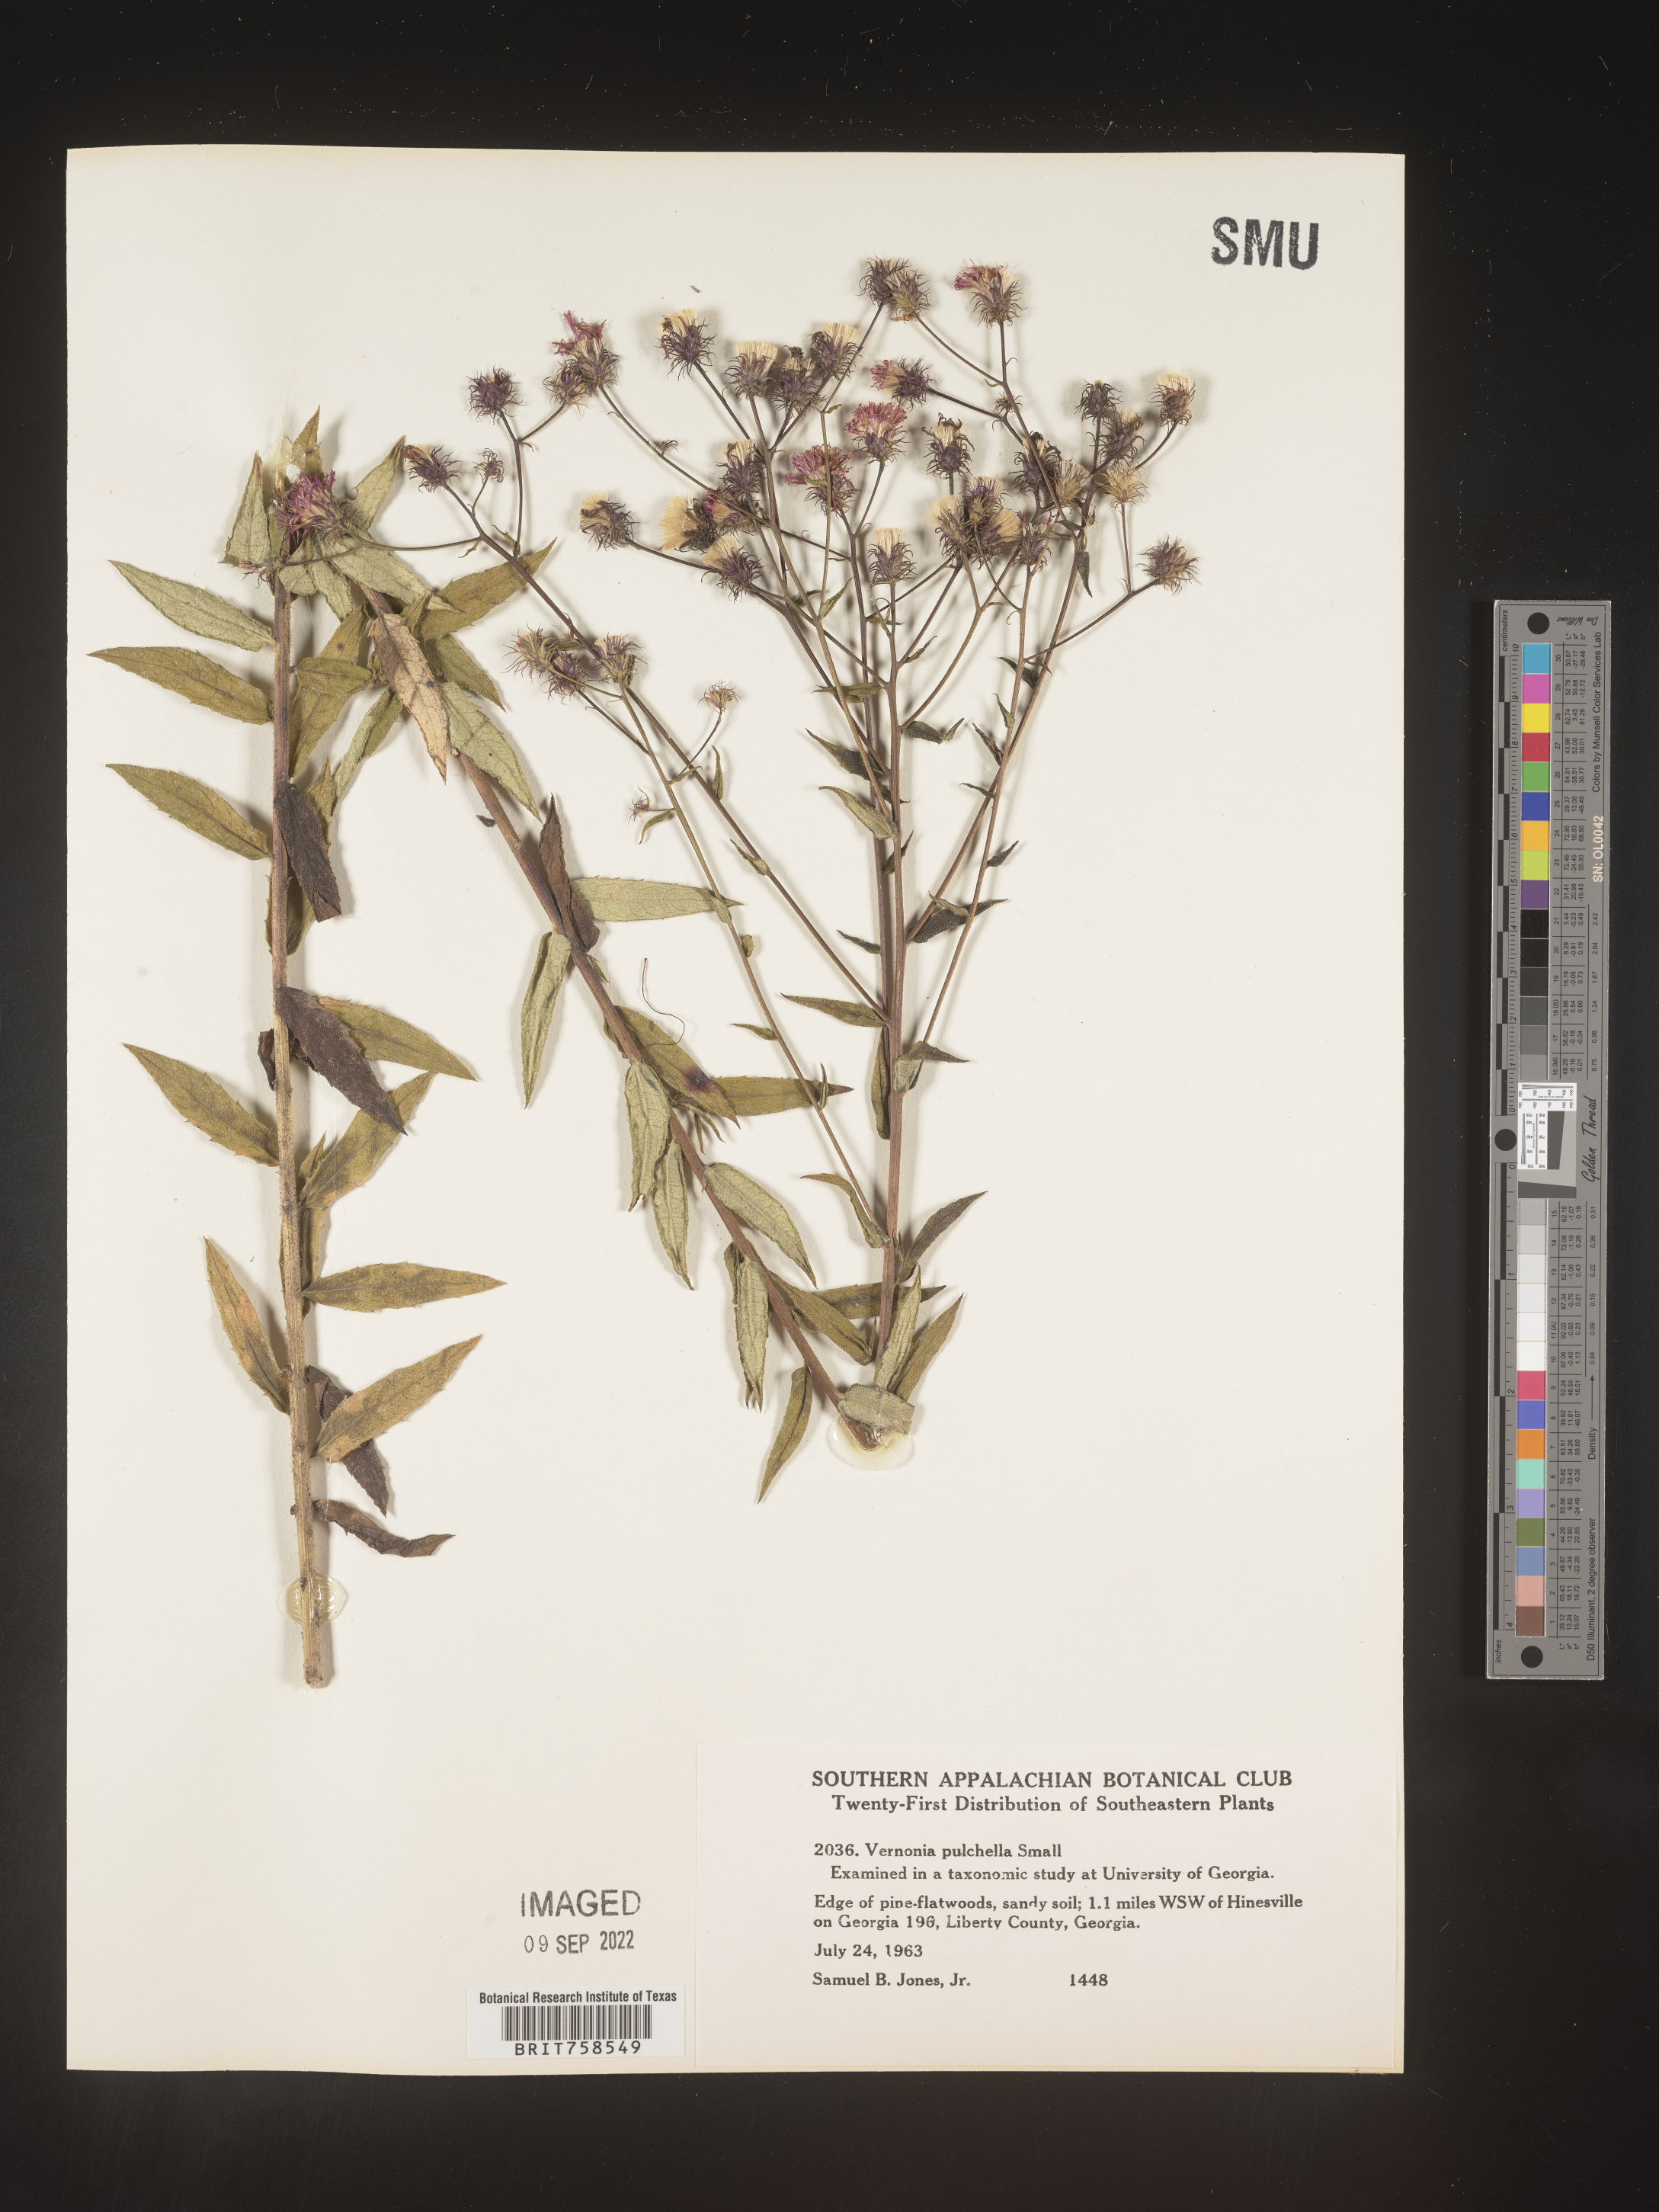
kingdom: Plantae
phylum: Tracheophyta
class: Magnoliopsida
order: Asterales
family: Asteraceae
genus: Vernonia
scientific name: Vernonia pulchella
